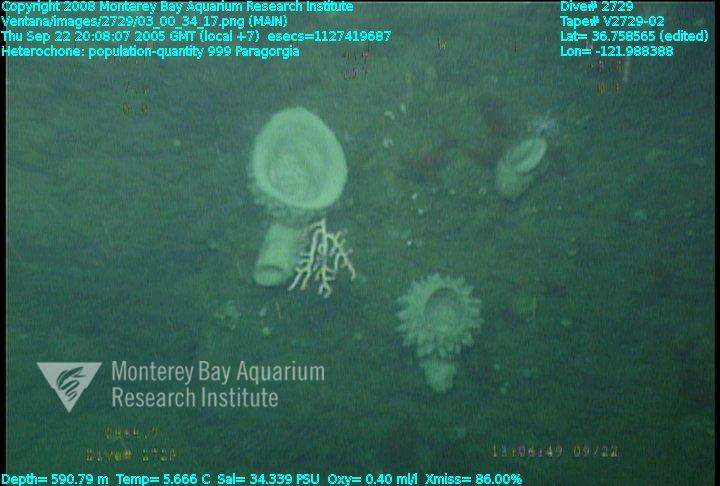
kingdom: Animalia
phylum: Porifera
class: Hexactinellida
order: Sceptrulophora
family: Aphrocallistidae
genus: Heterochone
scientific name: Heterochone
